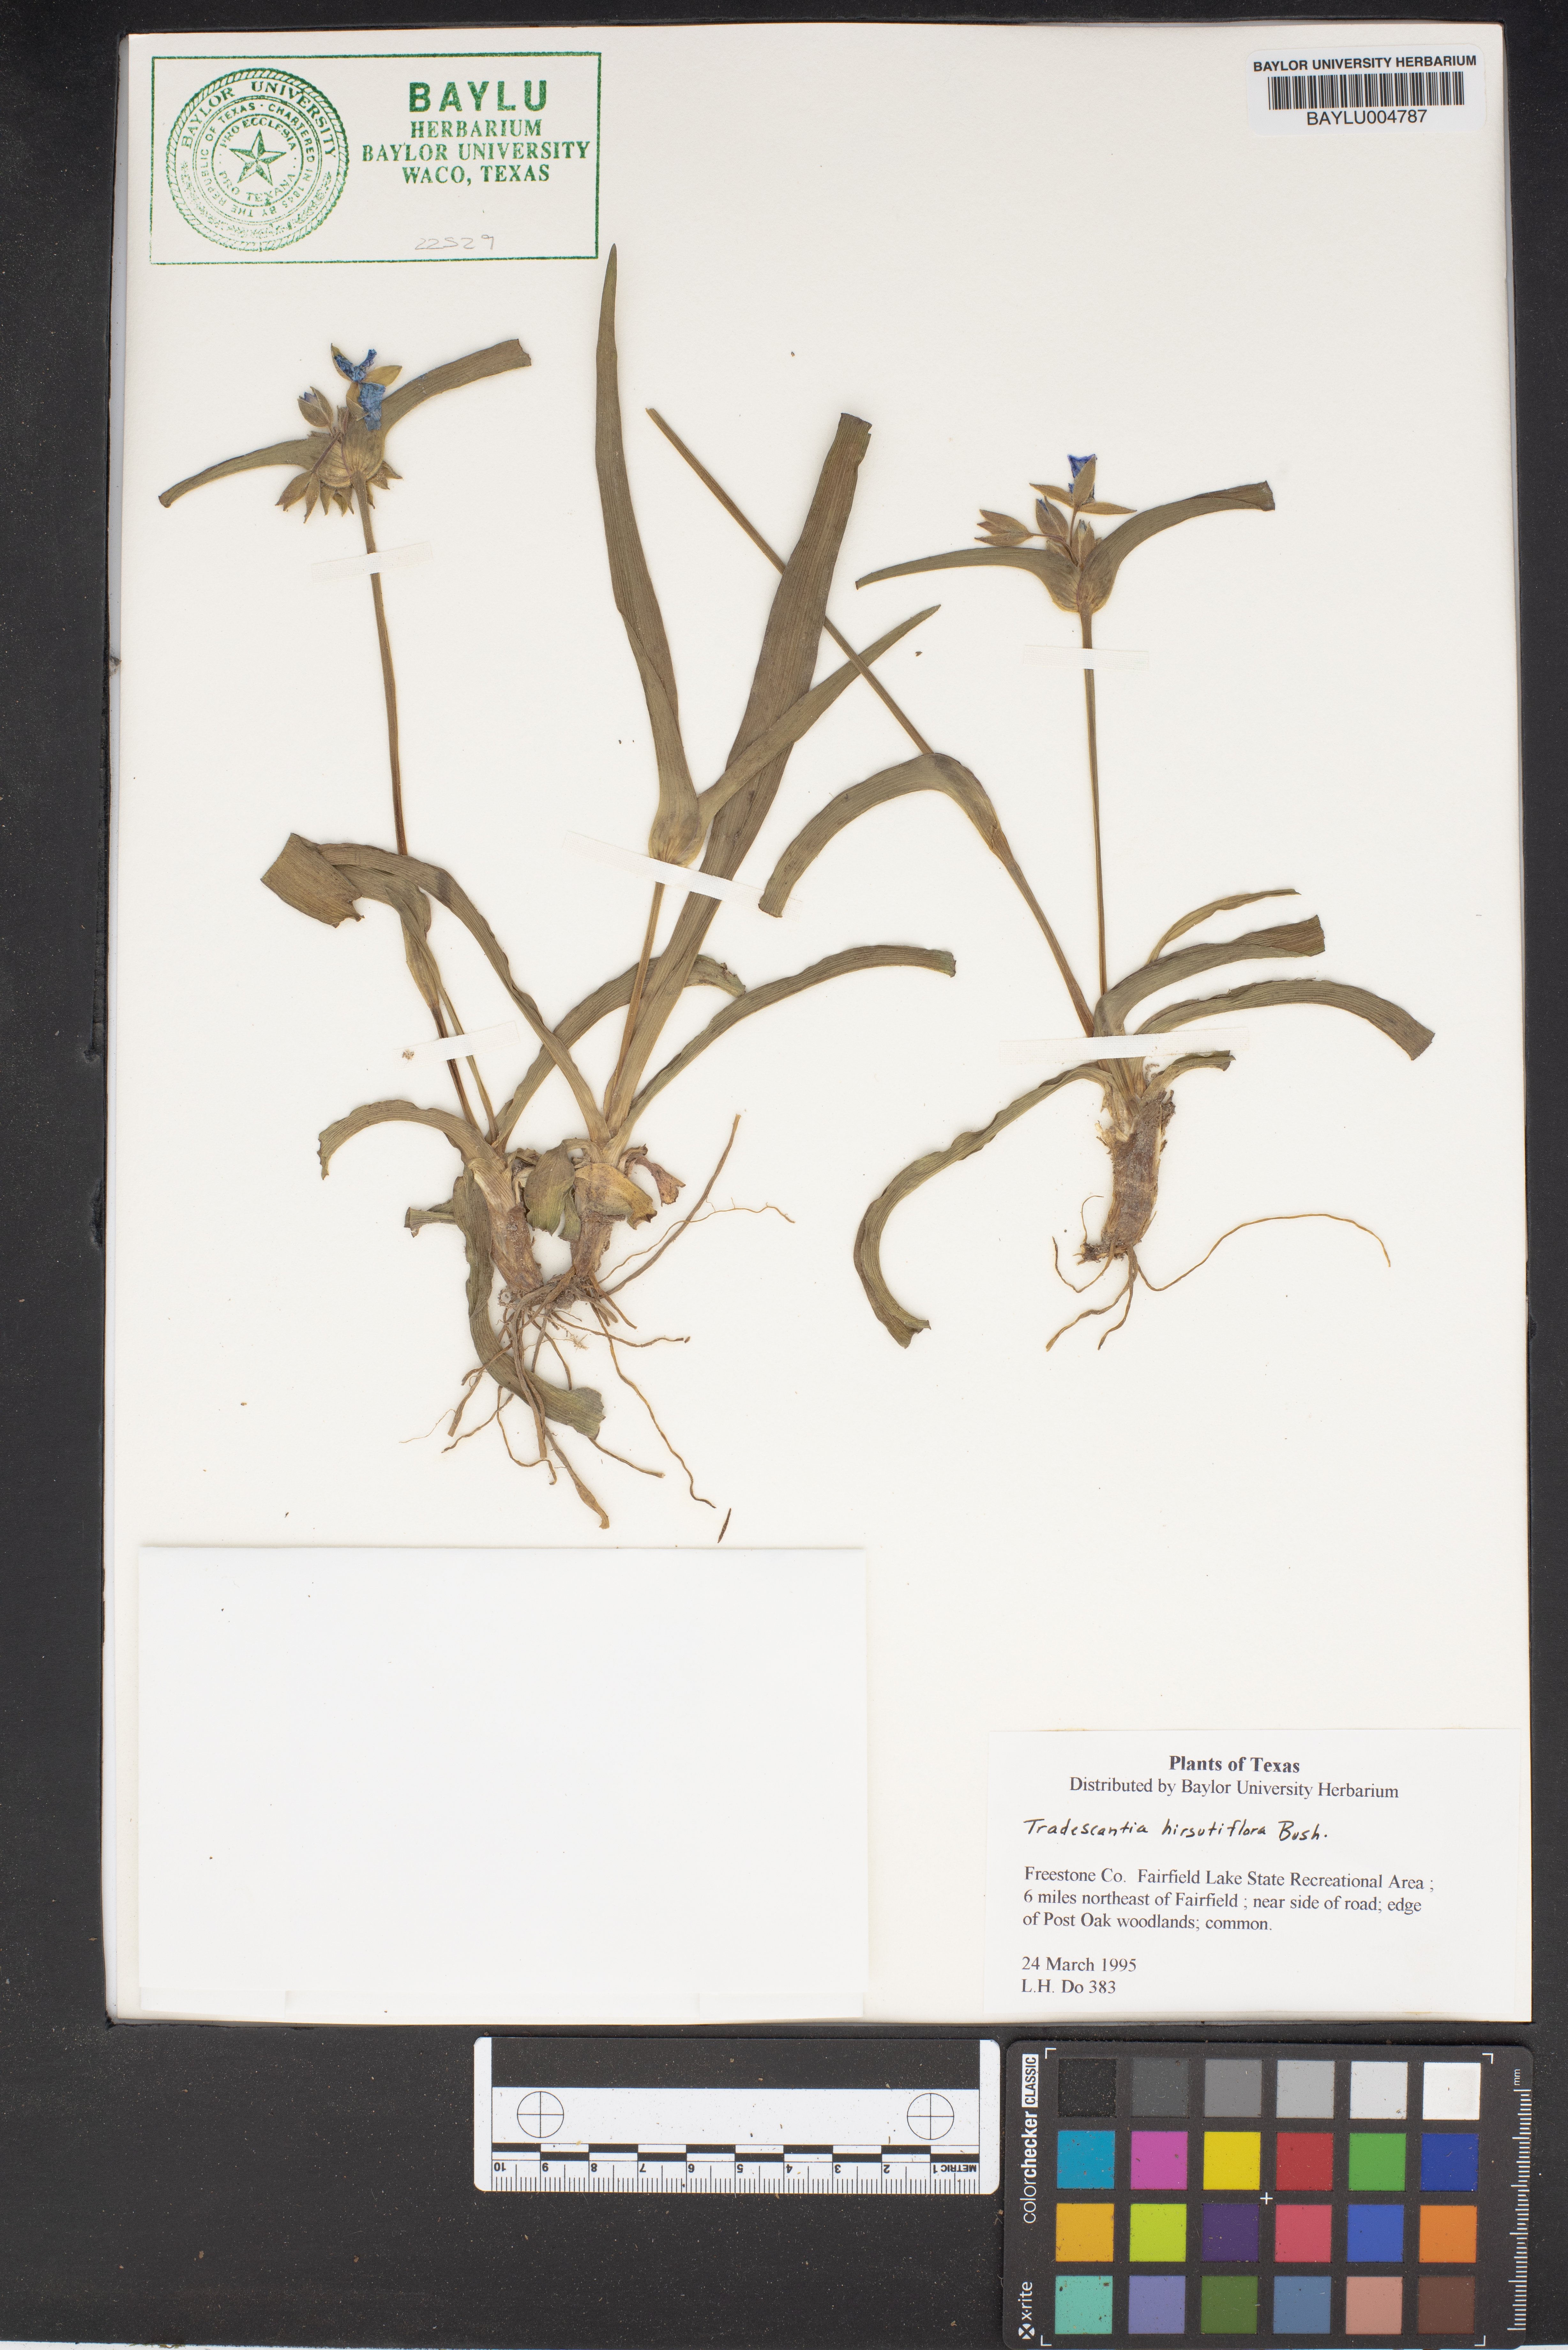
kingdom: Plantae
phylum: Tracheophyta
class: Liliopsida
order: Commelinales
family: Commelinaceae
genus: Tradescantia
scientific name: Tradescantia hirsutiflora
